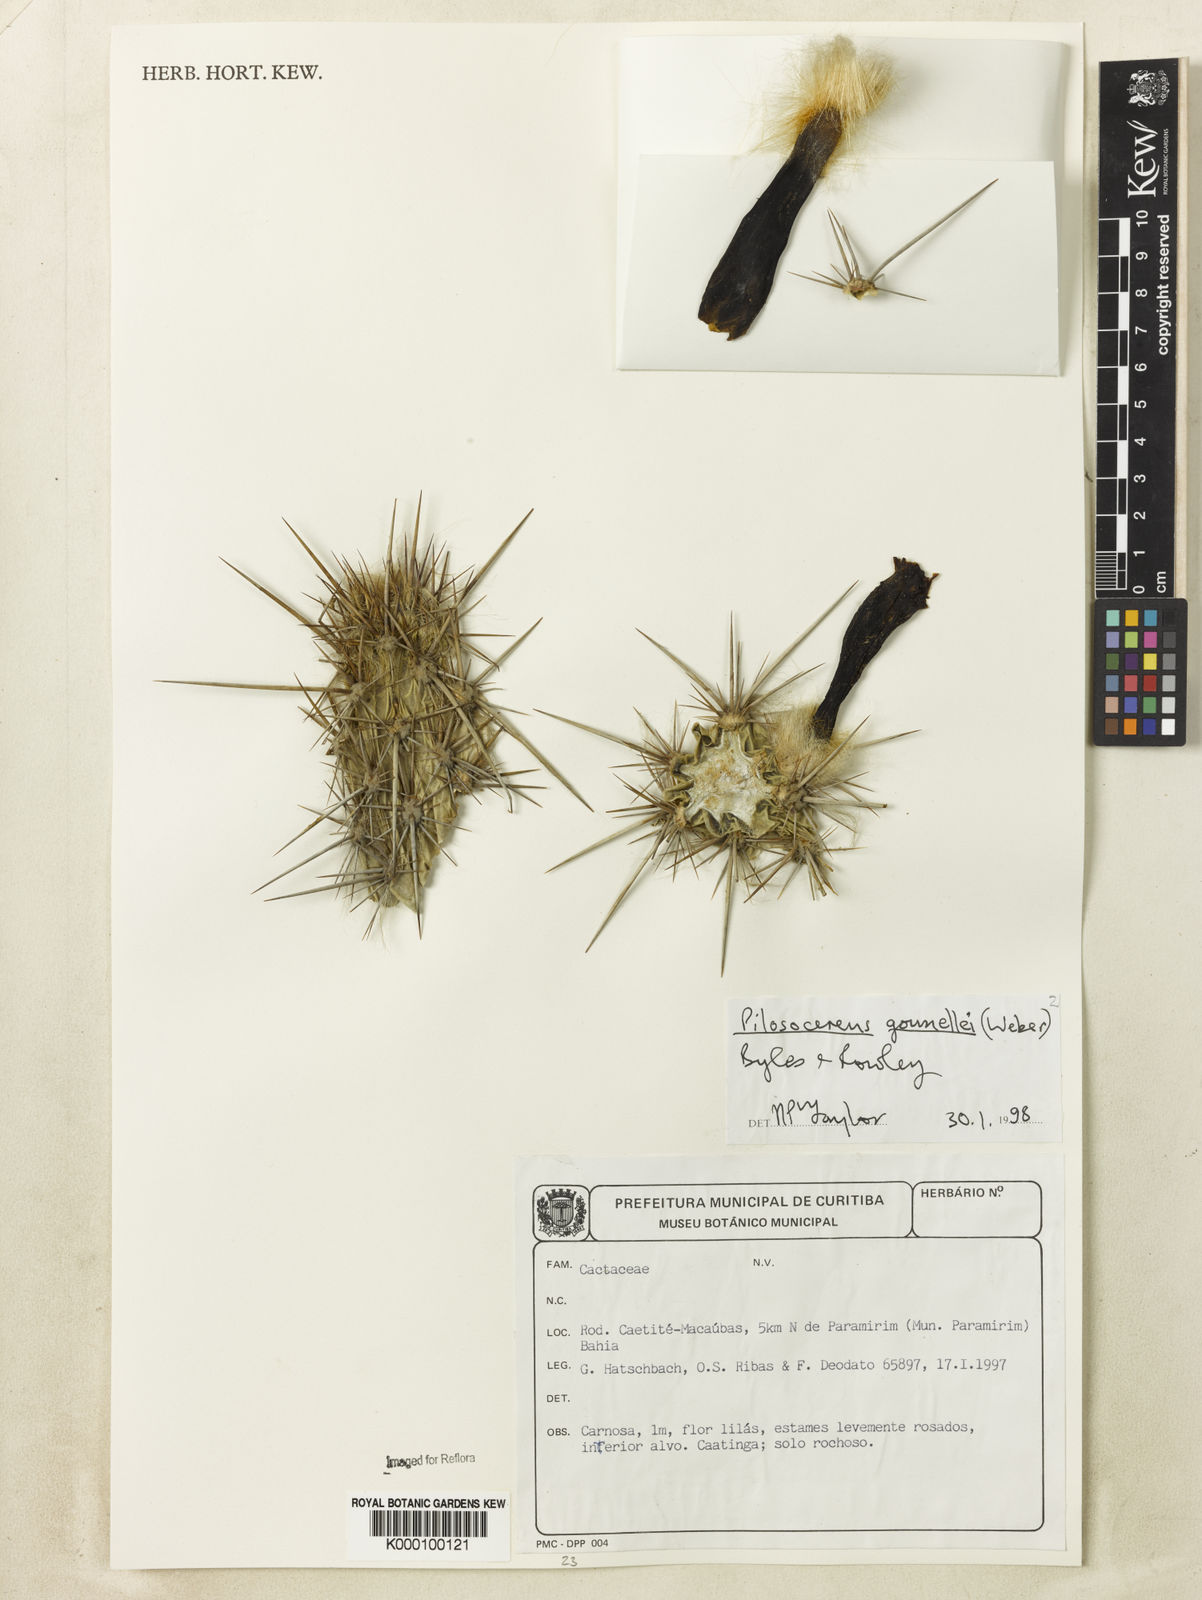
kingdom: Plantae
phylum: Tracheophyta
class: Magnoliopsida
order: Caryophyllales
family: Cactaceae
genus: Xiquexique
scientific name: Xiquexique gounellei
